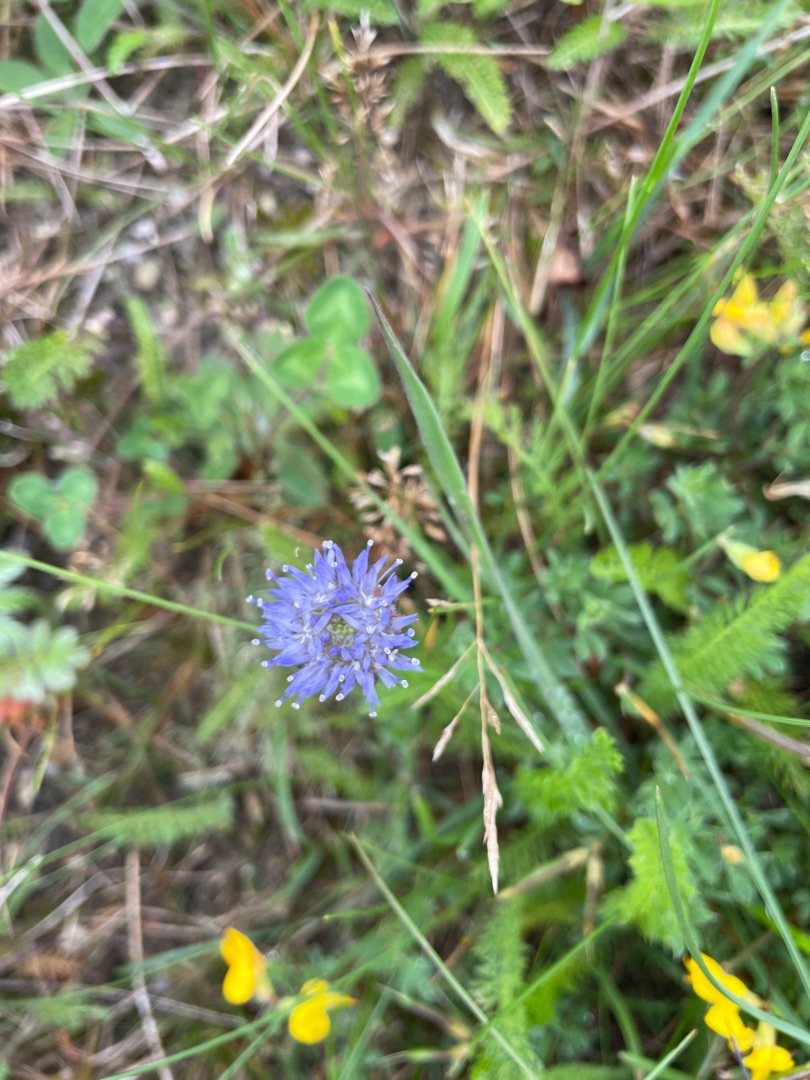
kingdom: Plantae
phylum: Tracheophyta
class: Magnoliopsida
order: Asterales
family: Campanulaceae
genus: Jasione
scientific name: Jasione montana
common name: Blåmunke
